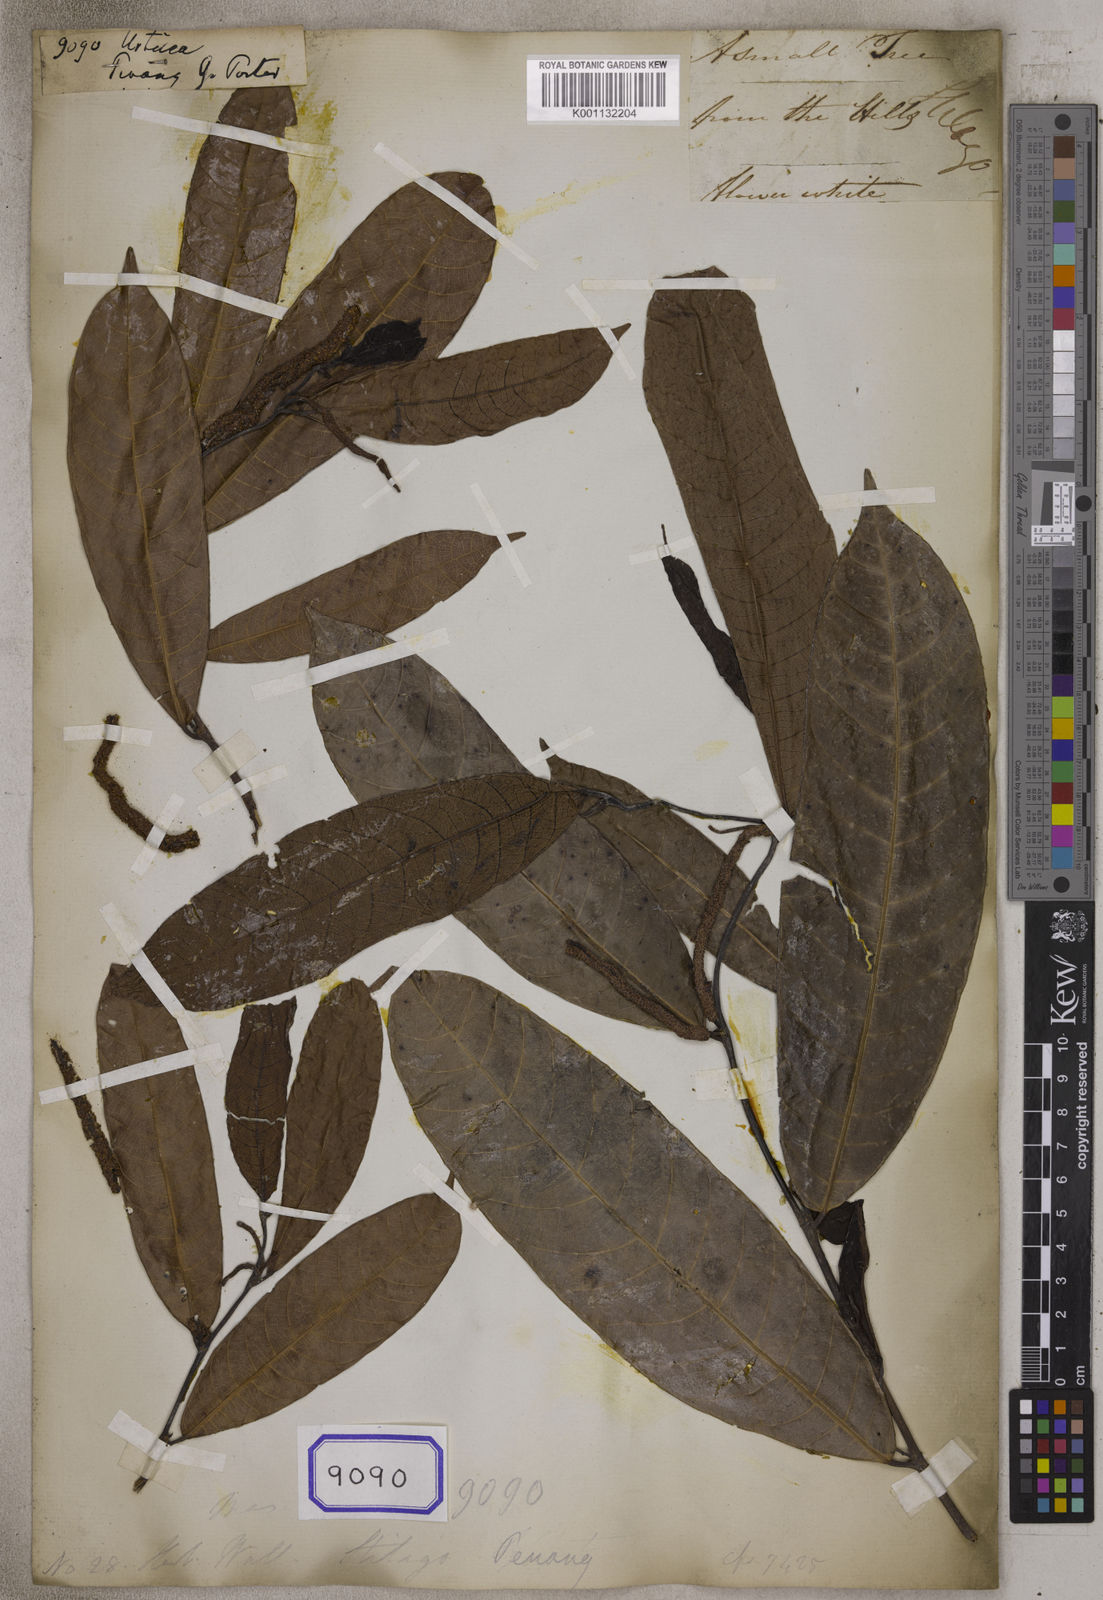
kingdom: Plantae
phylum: Tracheophyta
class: Magnoliopsida
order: Rosales
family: Urticaceae
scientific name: Urticaceae
